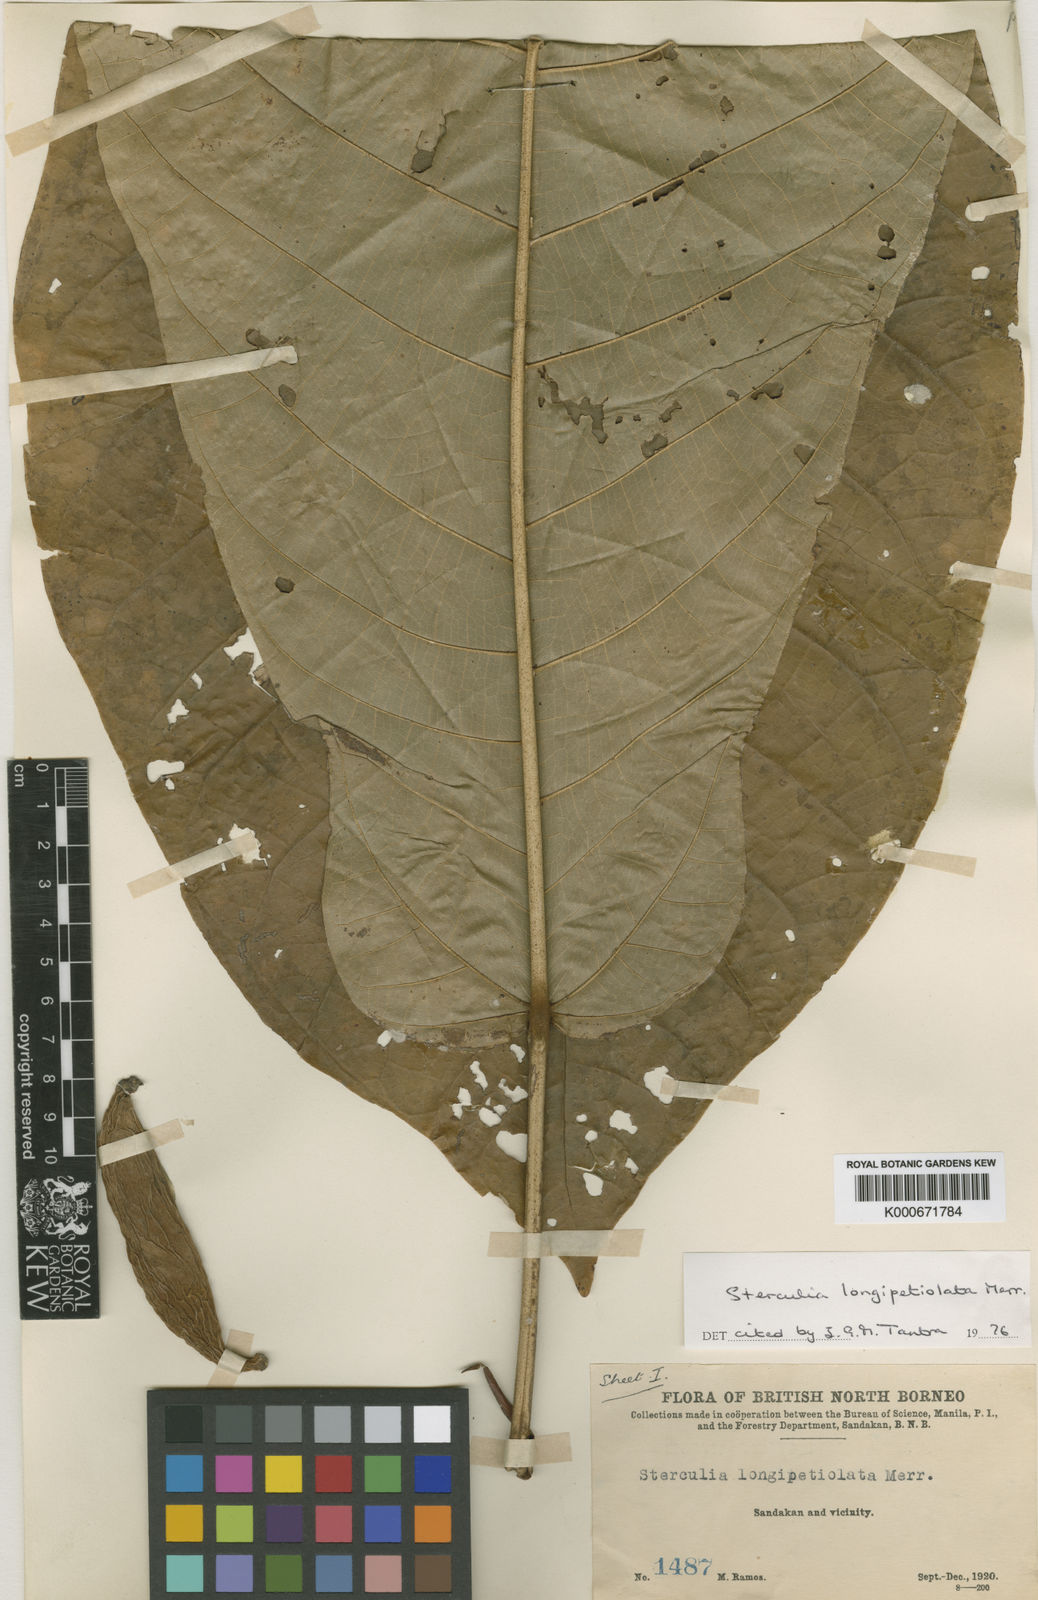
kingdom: Plantae
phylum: Tracheophyta
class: Magnoliopsida
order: Malvales
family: Malvaceae
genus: Sterculia
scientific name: Sterculia longipetiolata
